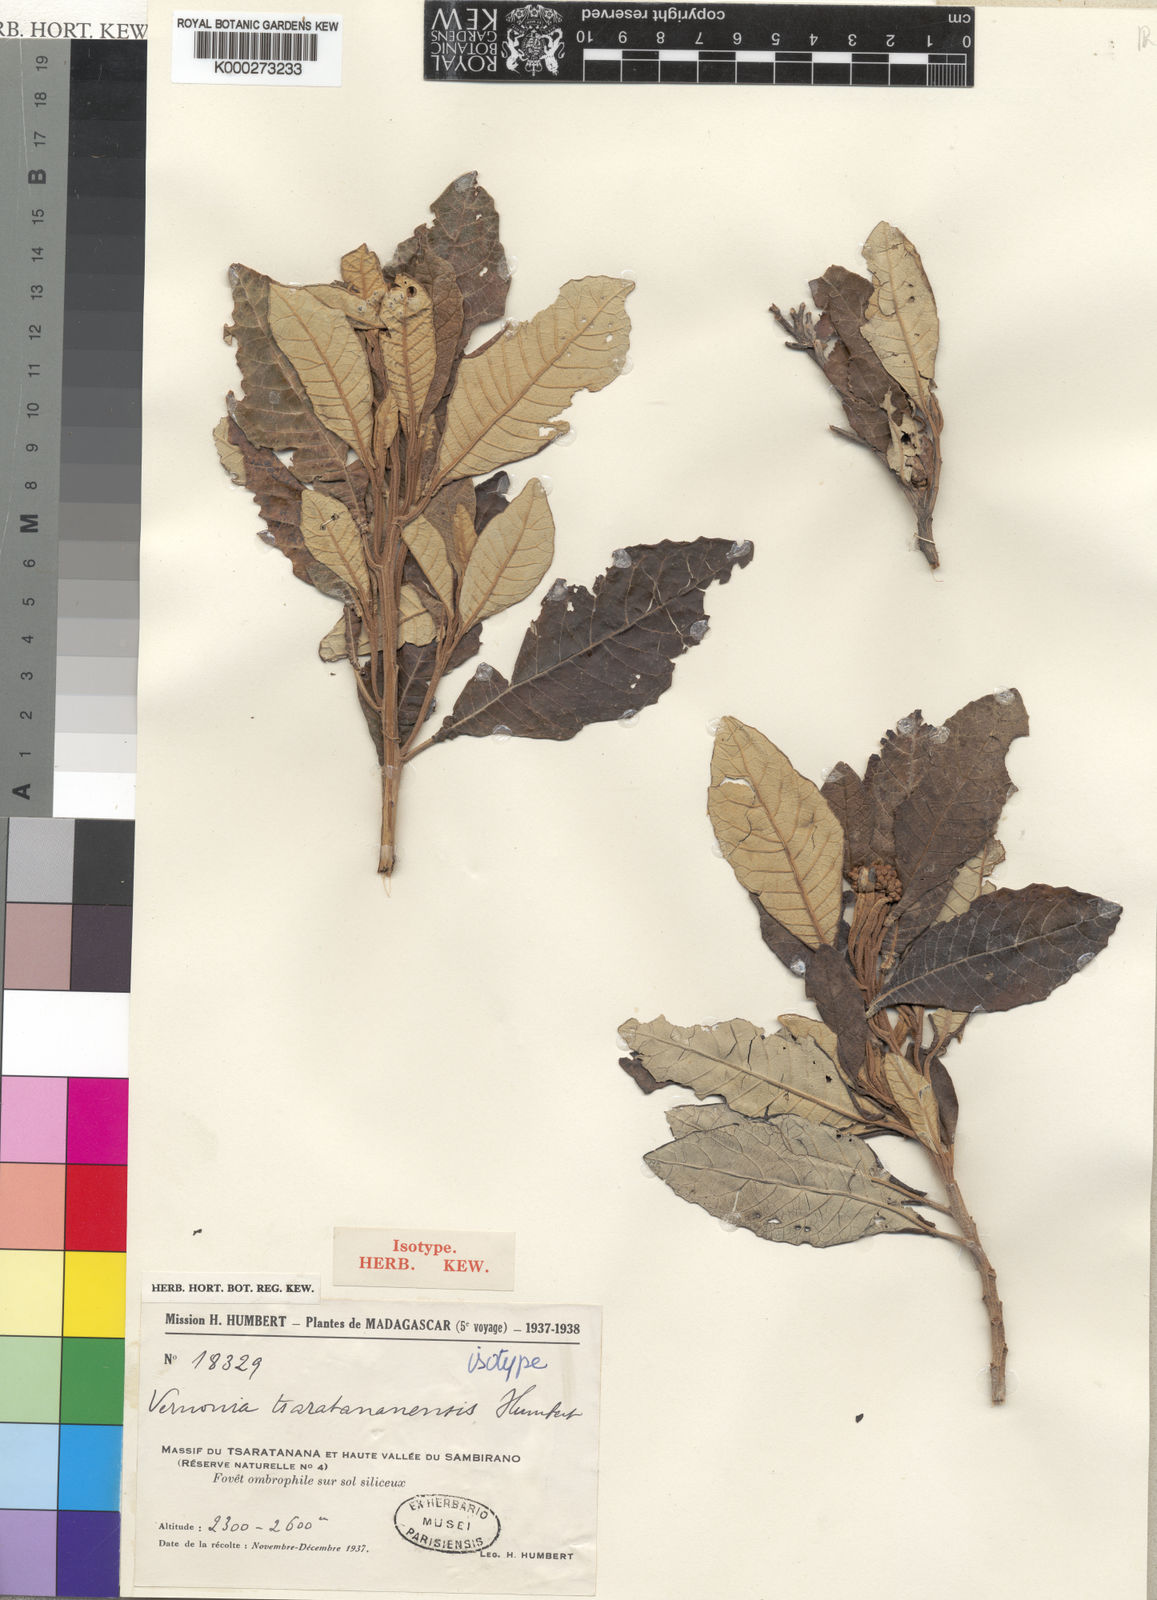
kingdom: Plantae
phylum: Tracheophyta
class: Magnoliopsida
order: Asterales
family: Asteraceae
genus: Vernonia
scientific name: Vernonia
